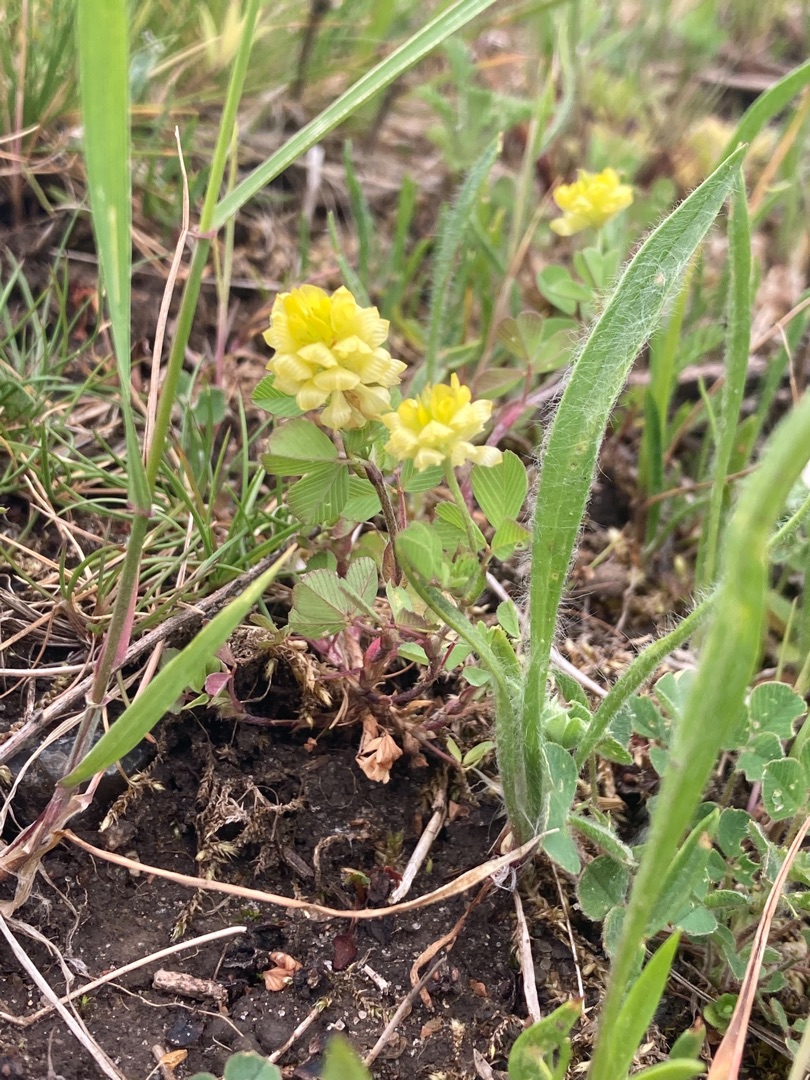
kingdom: Plantae
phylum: Tracheophyta
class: Magnoliopsida
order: Fabales
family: Fabaceae
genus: Trifolium
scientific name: Trifolium campestre
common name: Gul kløver
